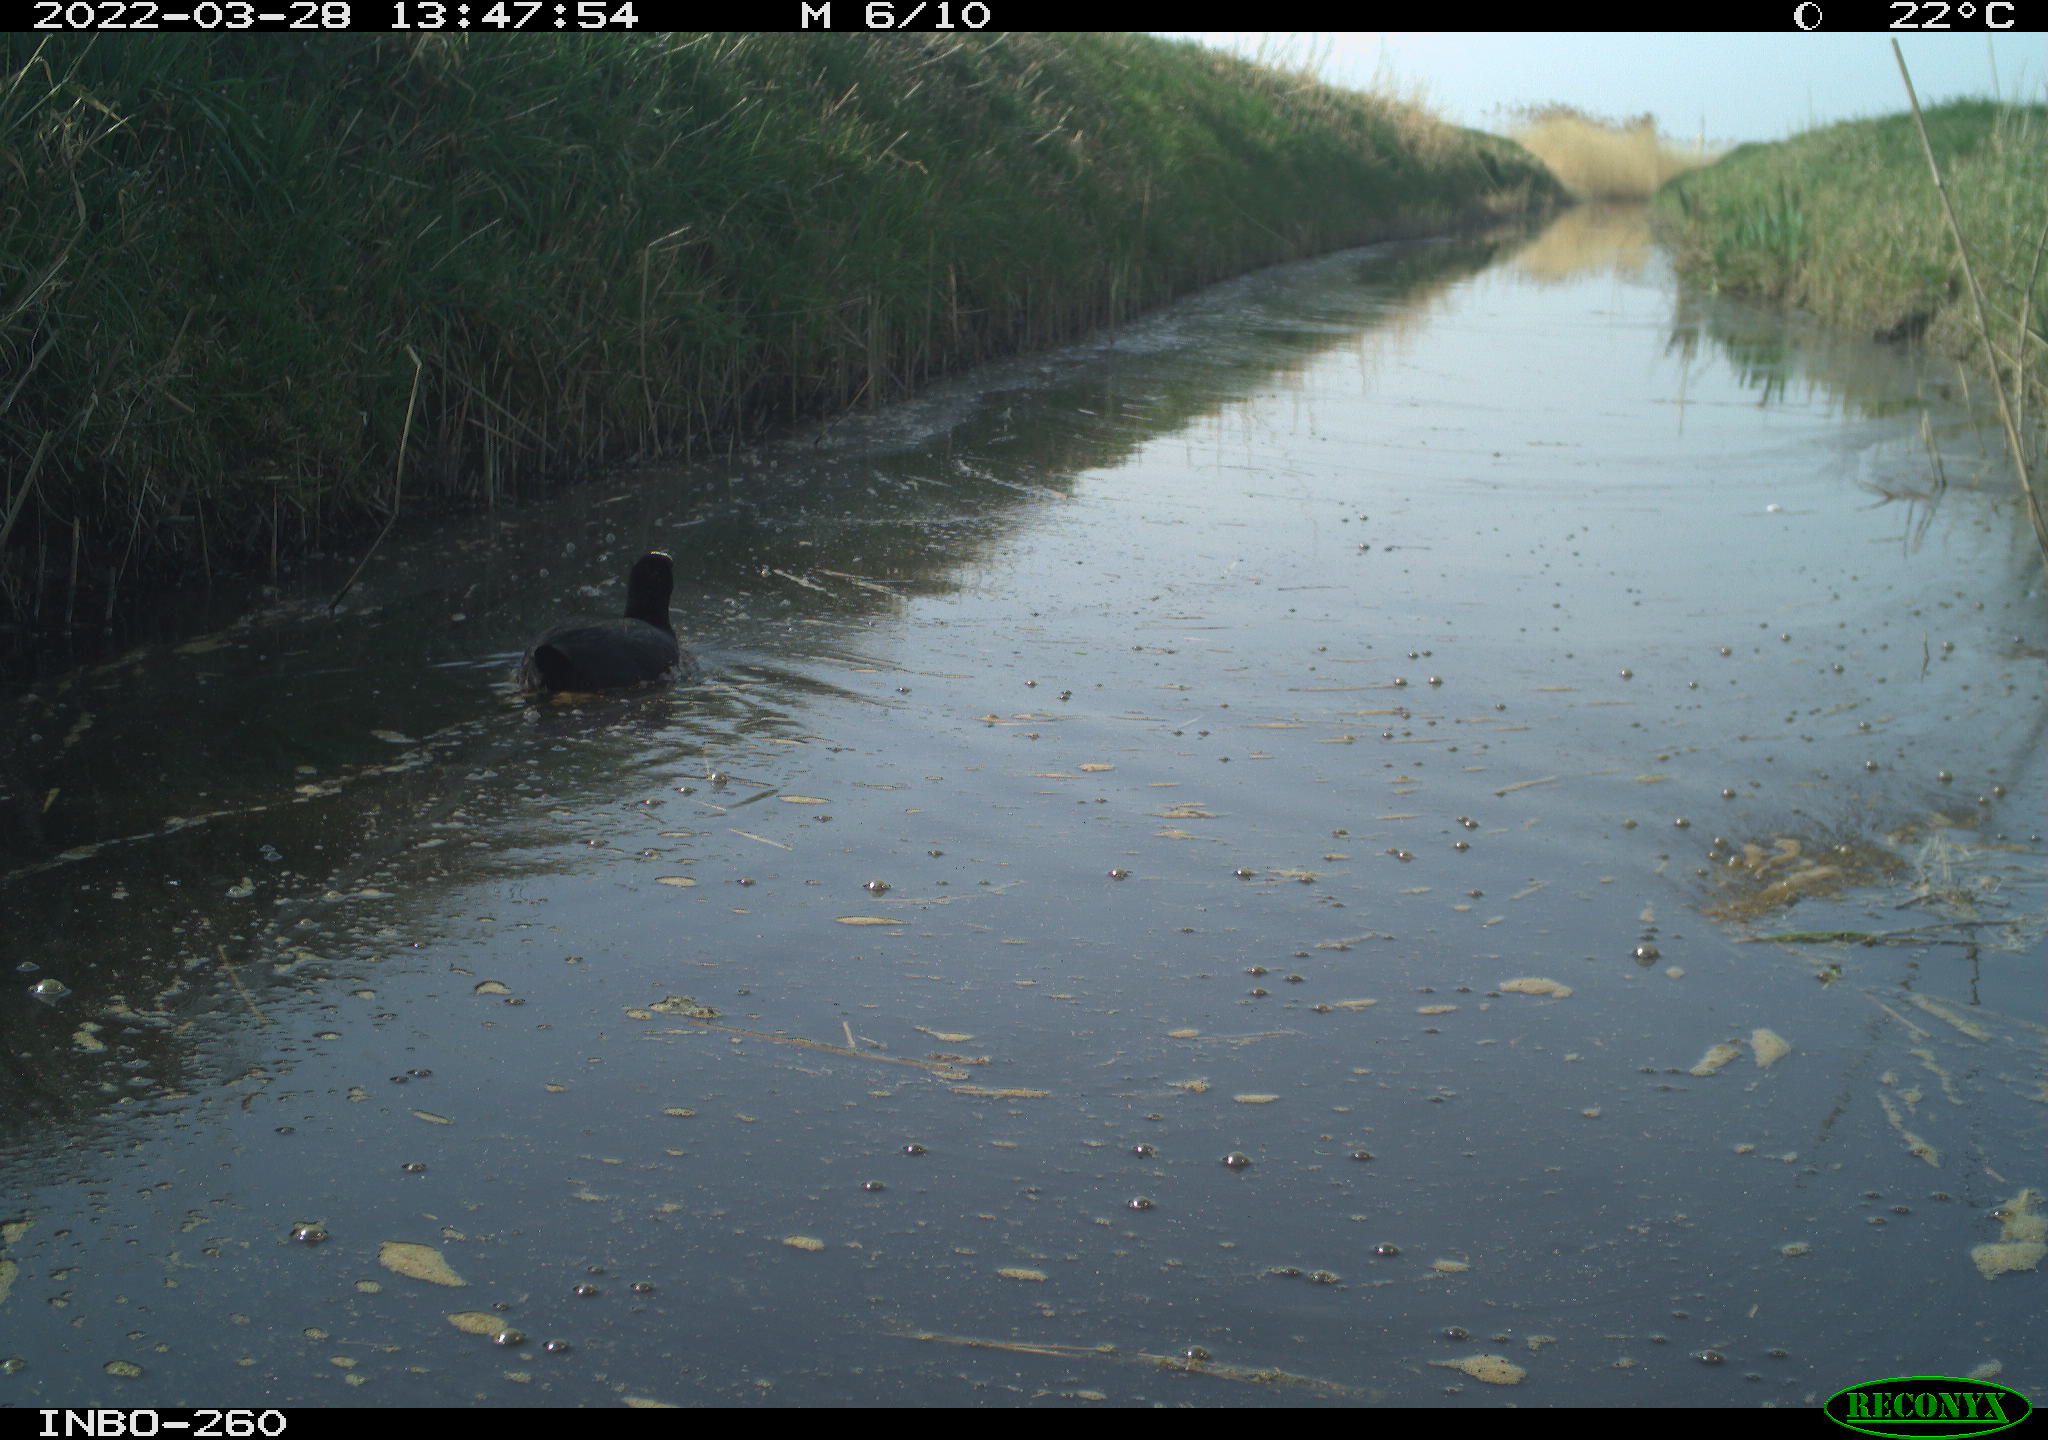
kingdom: Animalia
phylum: Chordata
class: Aves
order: Gruiformes
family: Rallidae
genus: Fulica
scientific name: Fulica atra
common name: Eurasian coot
